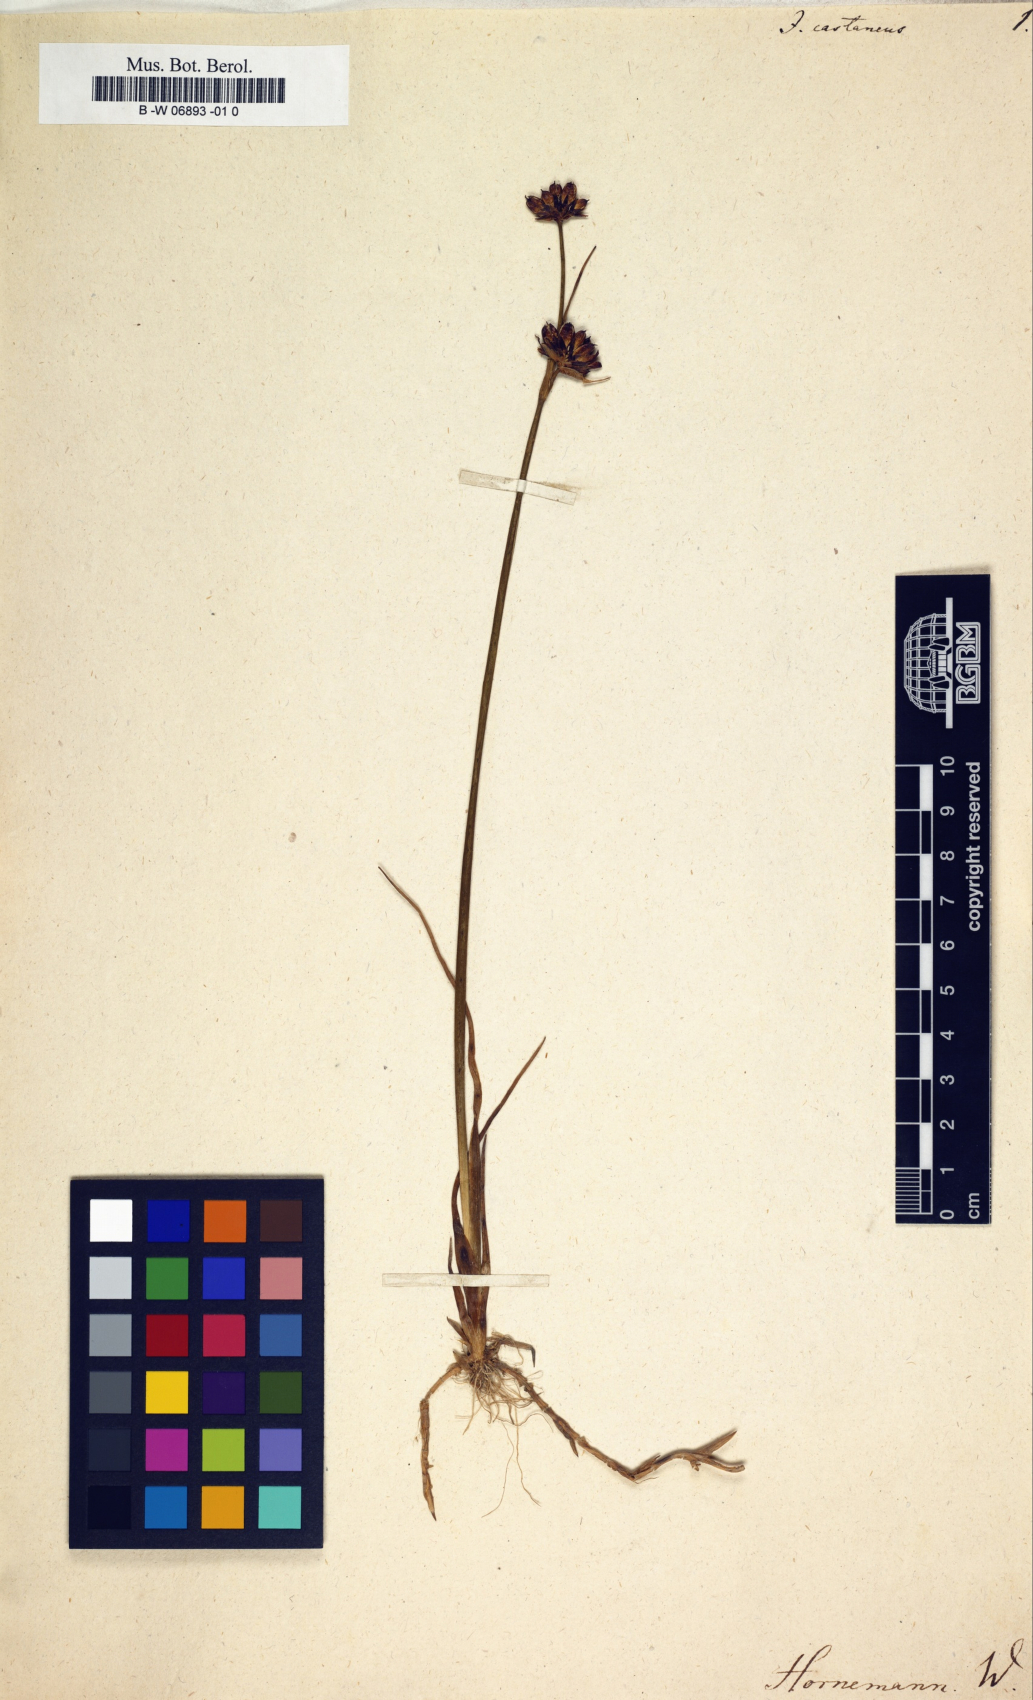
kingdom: Plantae
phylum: Tracheophyta
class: Liliopsida
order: Poales
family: Juncaceae
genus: Juncus
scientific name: Juncus castaneus
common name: Chestnut rush
